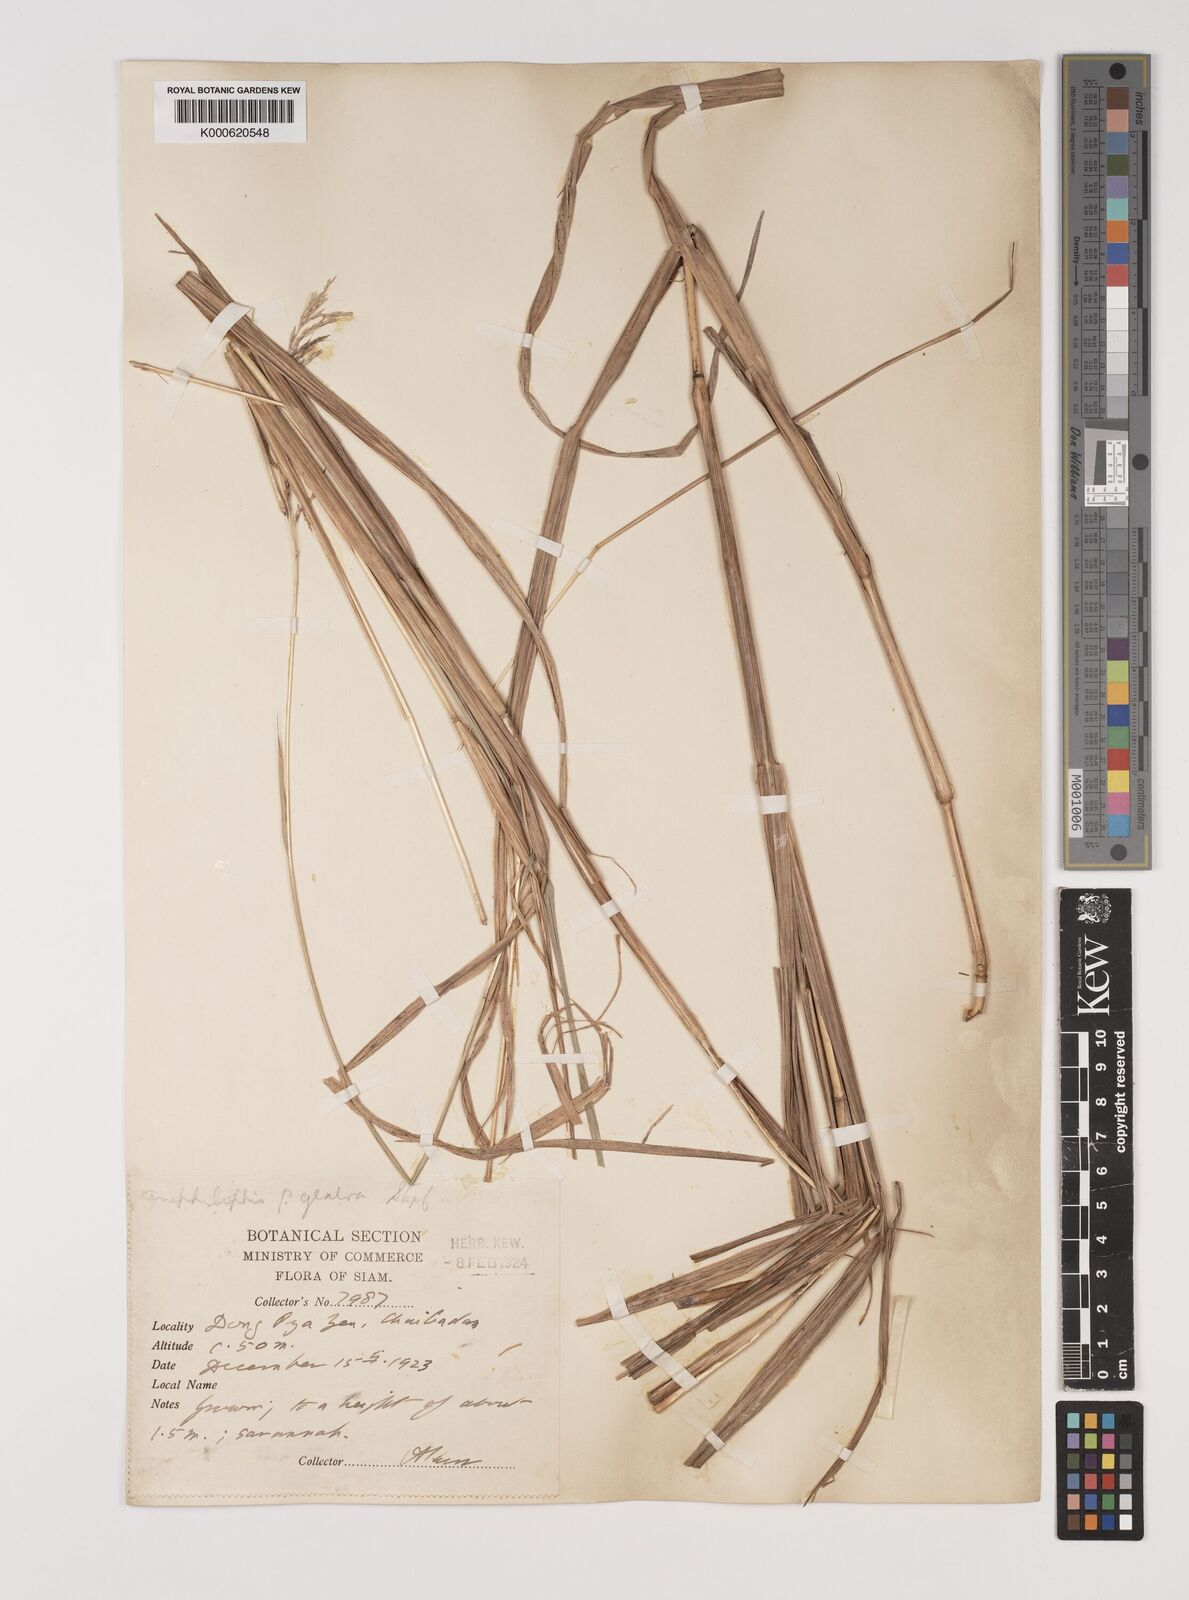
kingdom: Plantae
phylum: Tracheophyta
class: Liliopsida
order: Poales
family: Poaceae
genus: Bothriochloa
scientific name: Bothriochloa bladhii
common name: Caucasian bluestem
